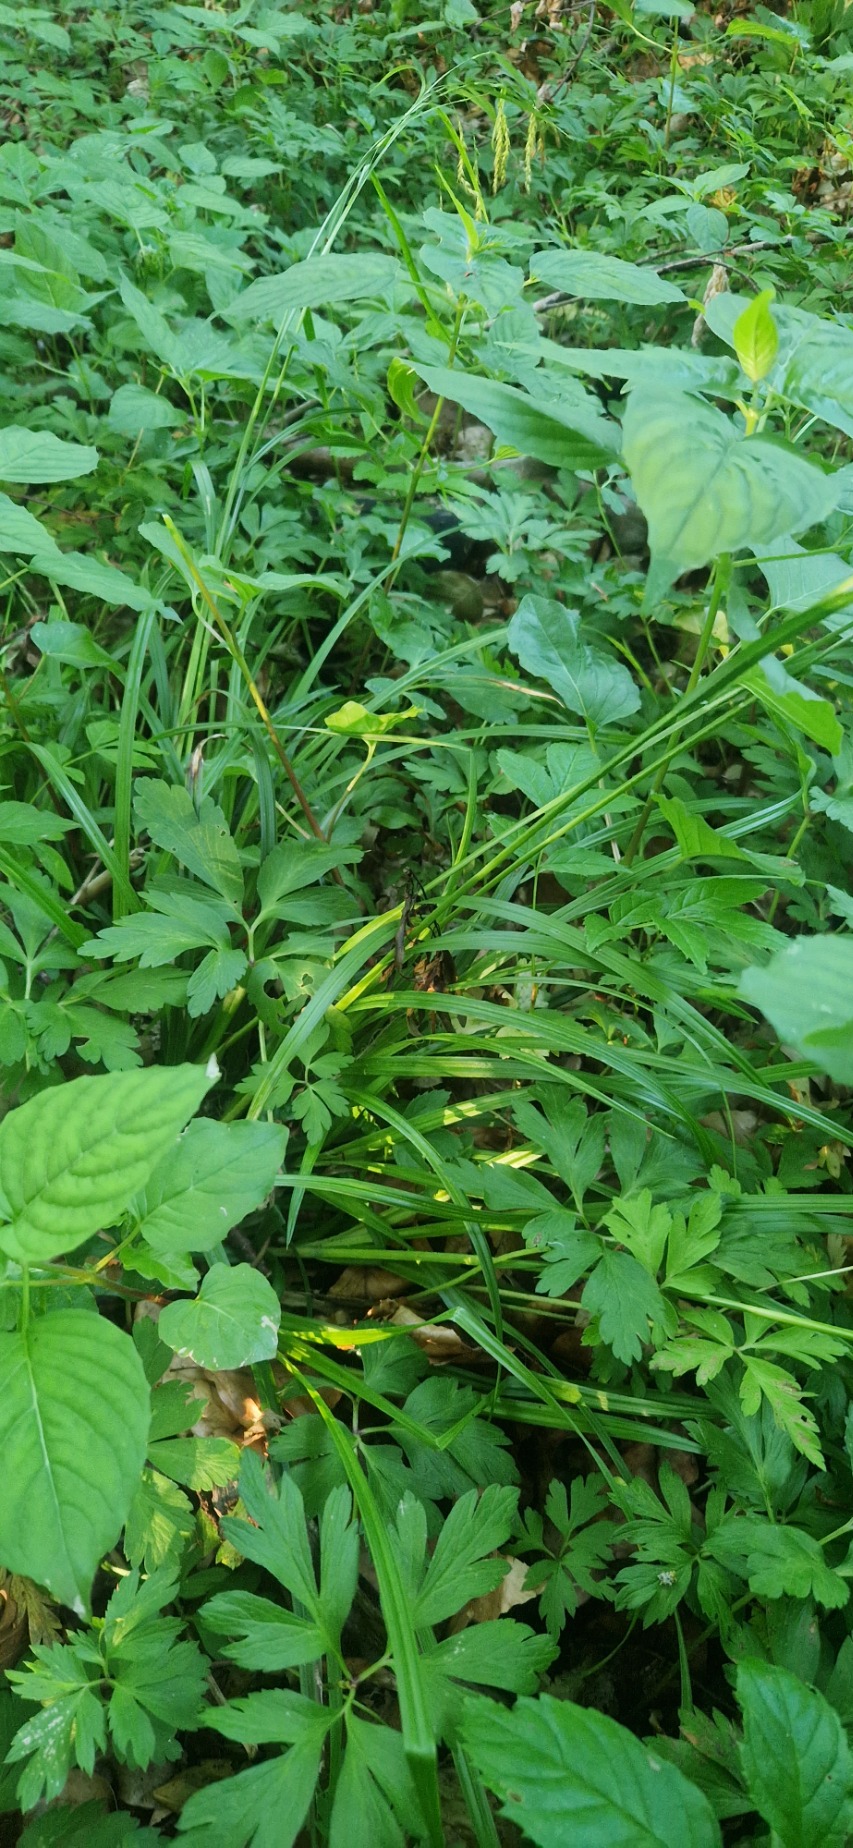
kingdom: Plantae
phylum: Tracheophyta
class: Liliopsida
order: Poales
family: Cyperaceae
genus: Carex
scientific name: Carex sylvatica
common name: Skov-star
